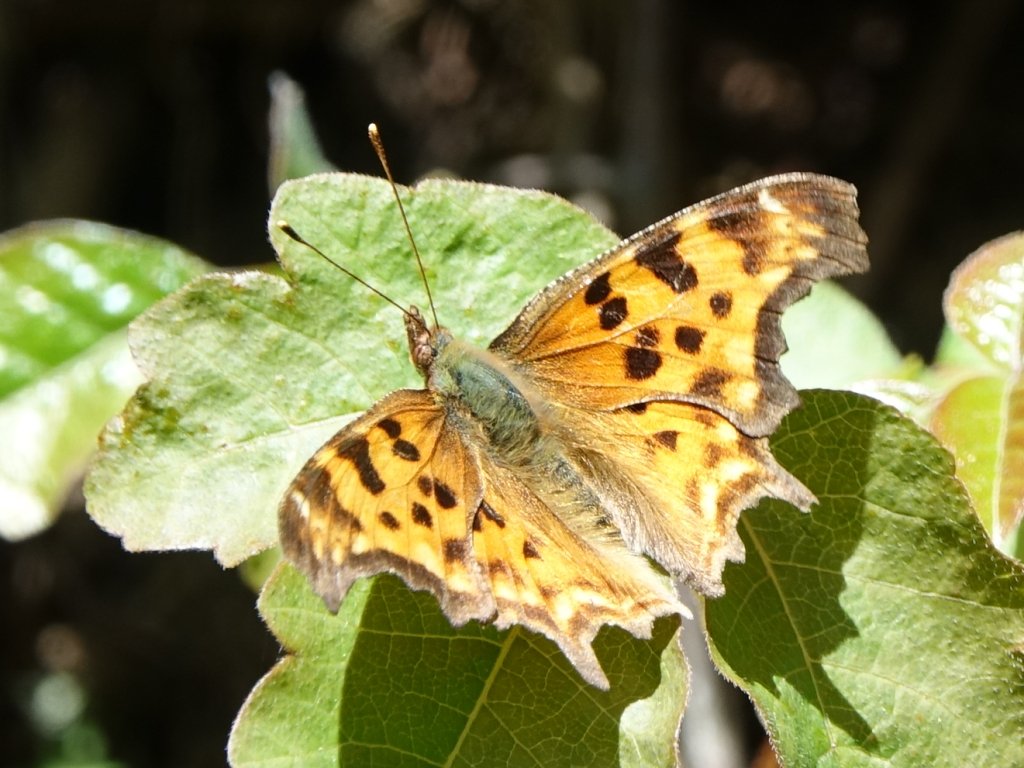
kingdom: Animalia
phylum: Arthropoda
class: Insecta
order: Lepidoptera
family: Nymphalidae
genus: Polygonia
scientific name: Polygonia satyrus
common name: Satyr Comma
